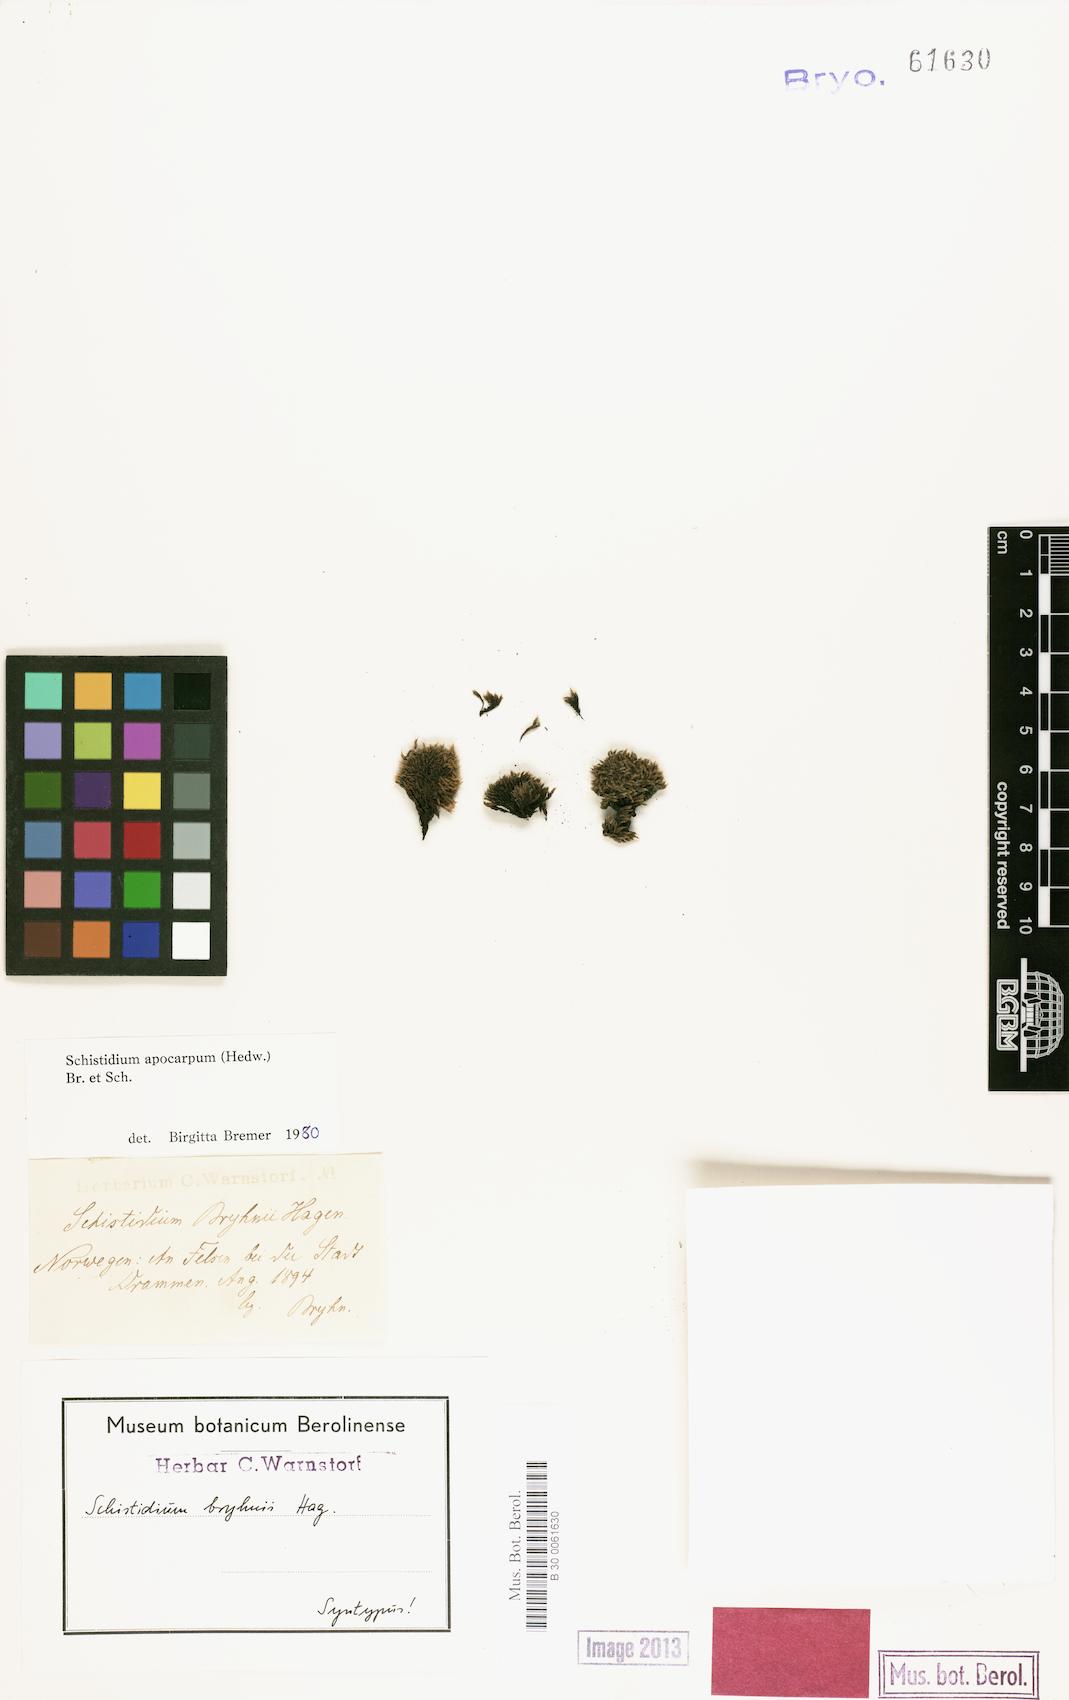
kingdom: Plantae
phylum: Bryophyta
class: Bryopsida
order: Grimmiales
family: Grimmiaceae
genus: Schistidium
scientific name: Schistidium apocarpum
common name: Radiate bloom moss
